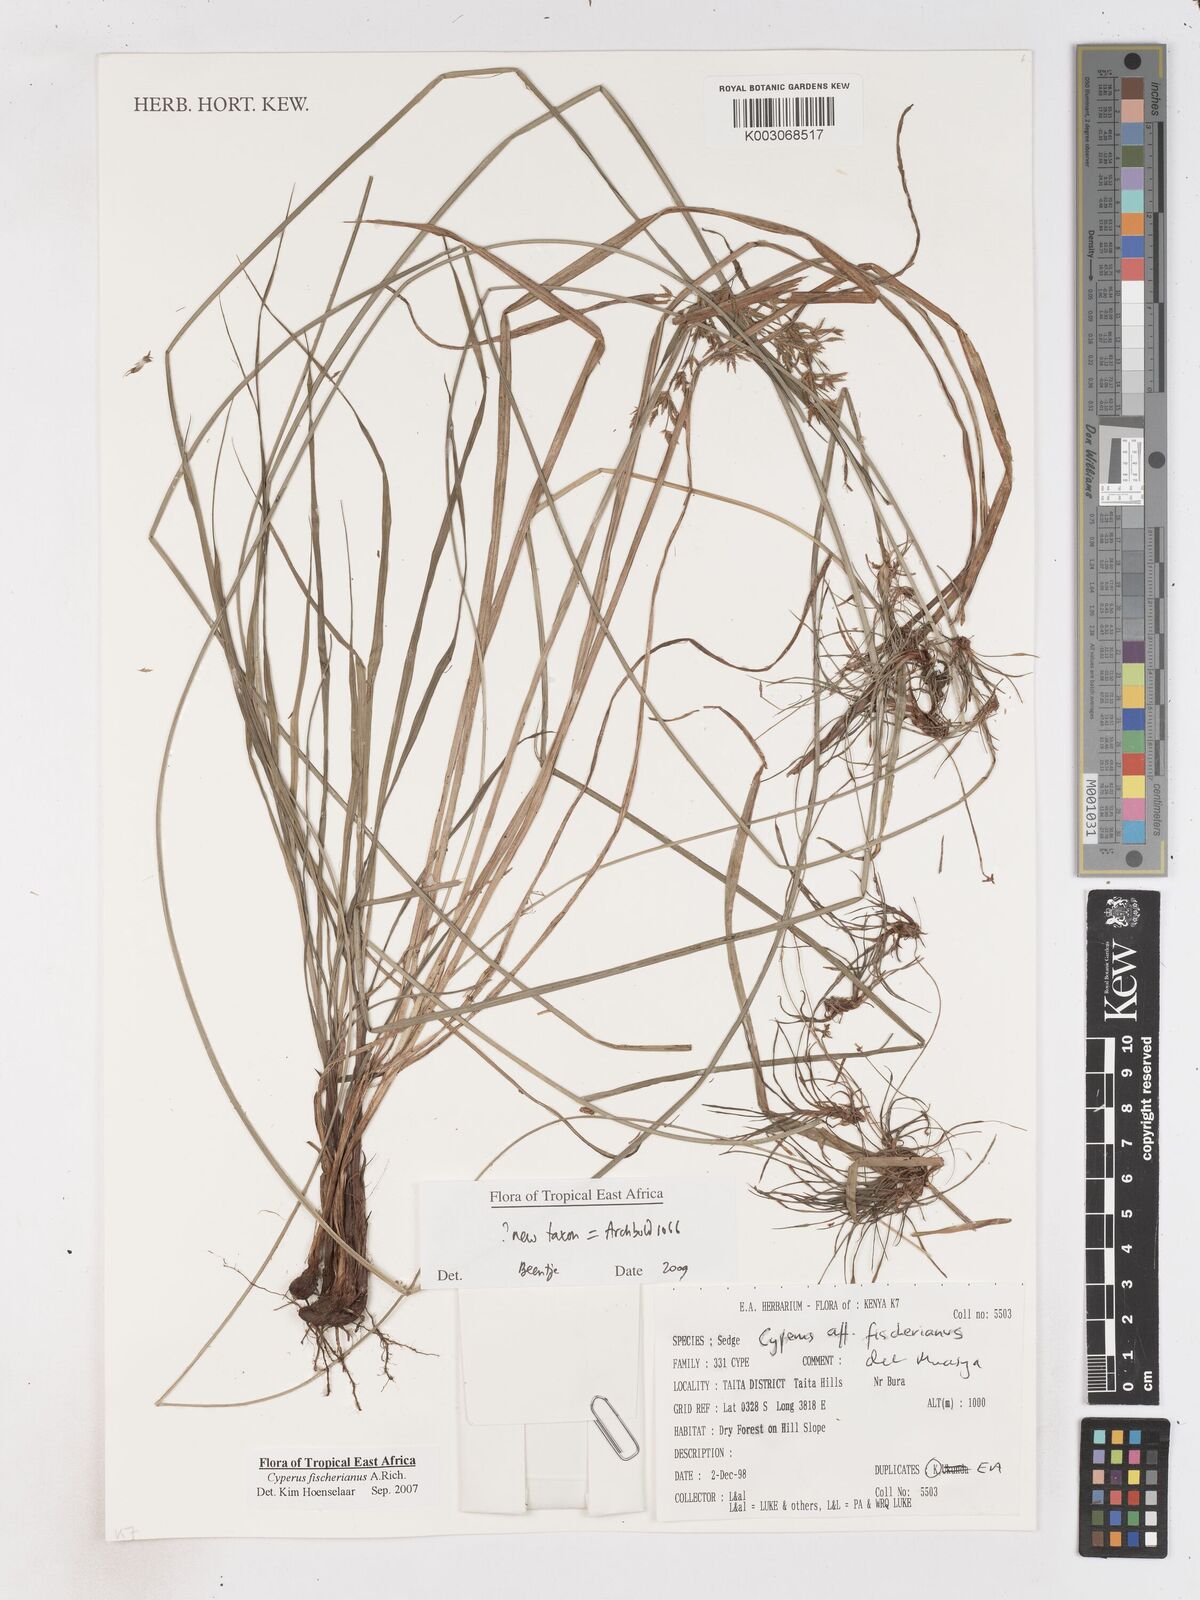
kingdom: Plantae
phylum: Tracheophyta
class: Liliopsida
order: Poales
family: Cyperaceae
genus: Cyperus
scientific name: Cyperus glaucophyllus
